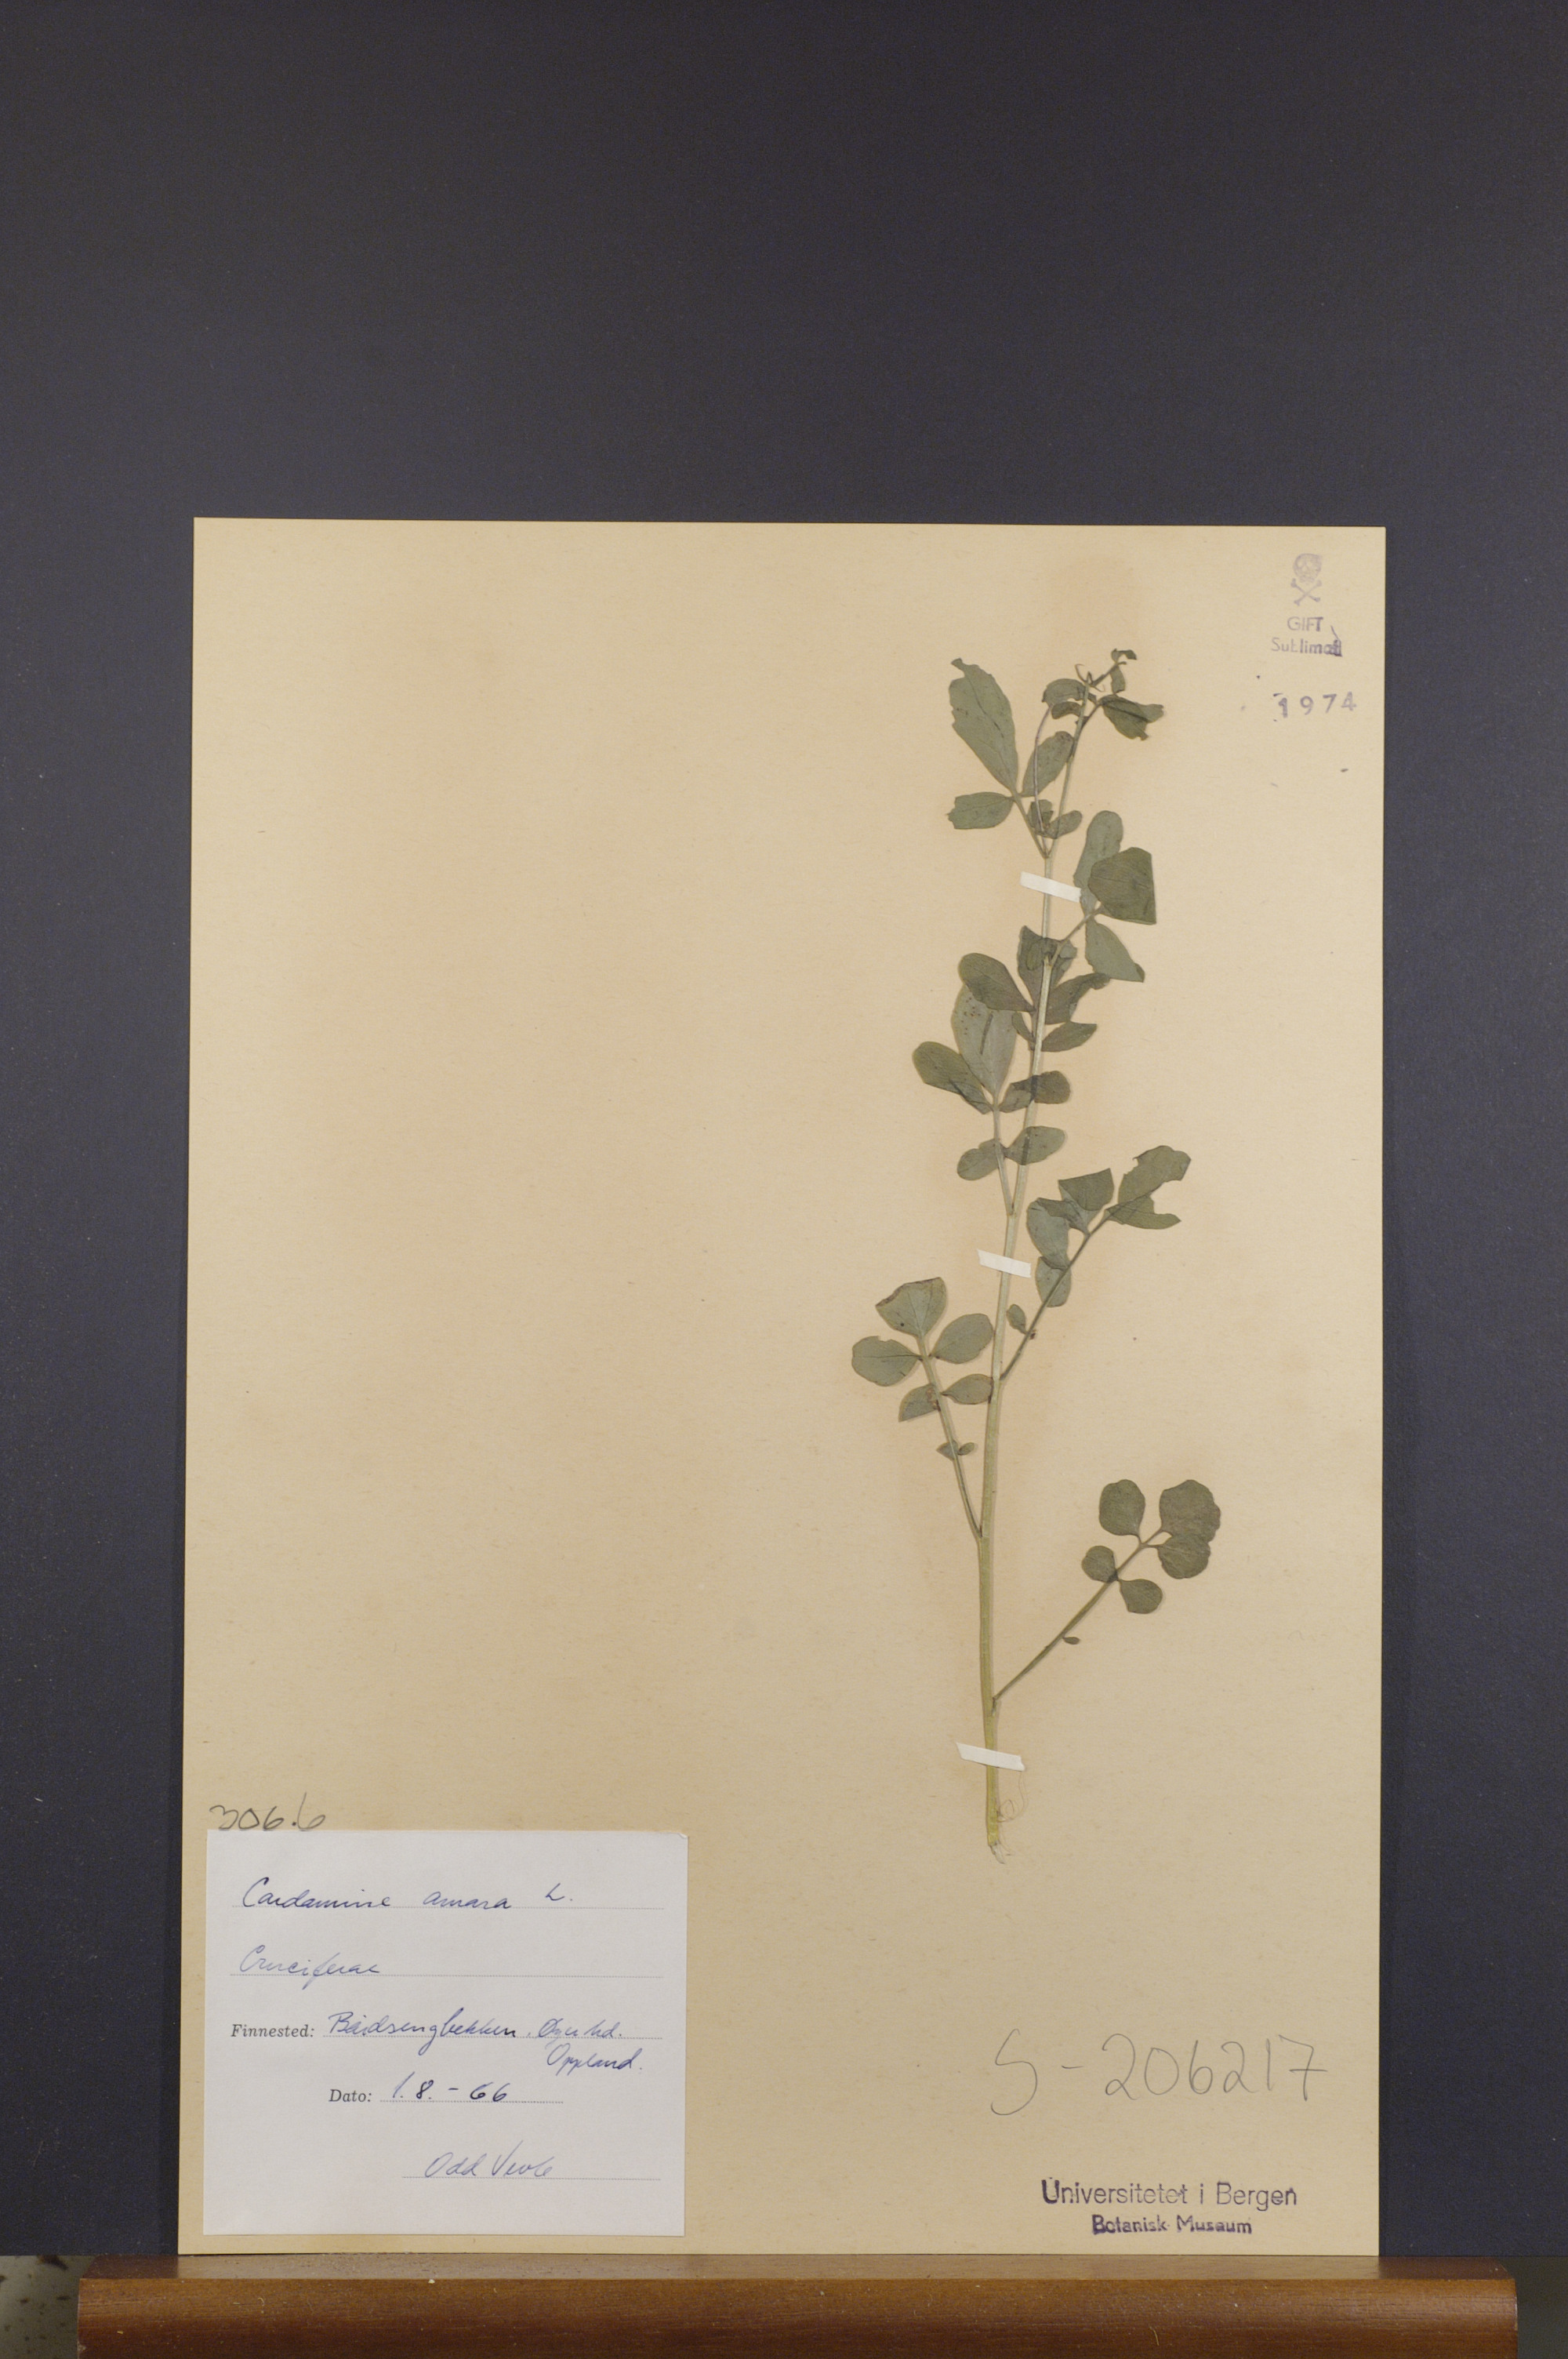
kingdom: Plantae
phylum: Tracheophyta
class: Magnoliopsida
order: Brassicales
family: Brassicaceae
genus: Cardamine
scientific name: Cardamine amara
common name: Large bitter-cress
